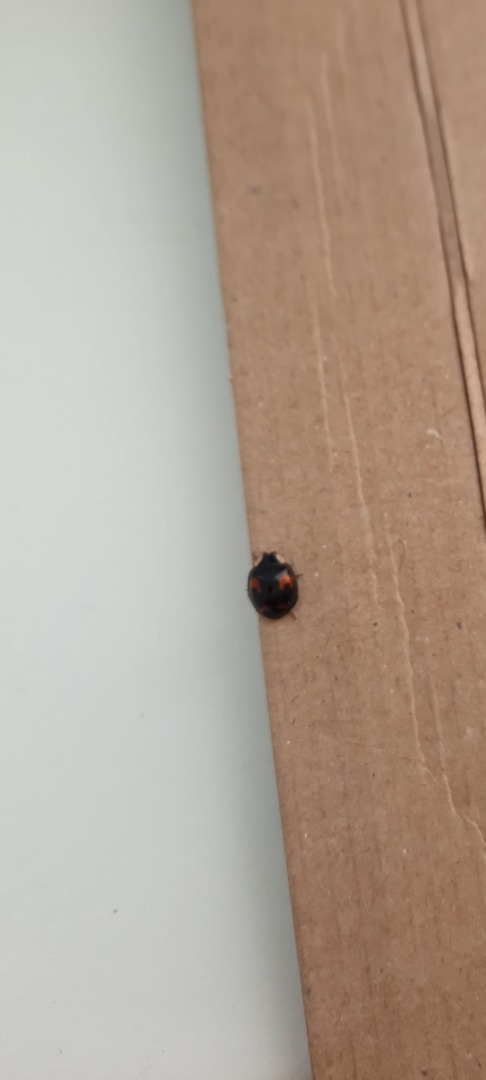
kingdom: Animalia
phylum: Arthropoda
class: Insecta
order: Coleoptera
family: Coccinellidae
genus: Harmonia
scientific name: Harmonia axyridis
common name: Harlekinmariehøne
